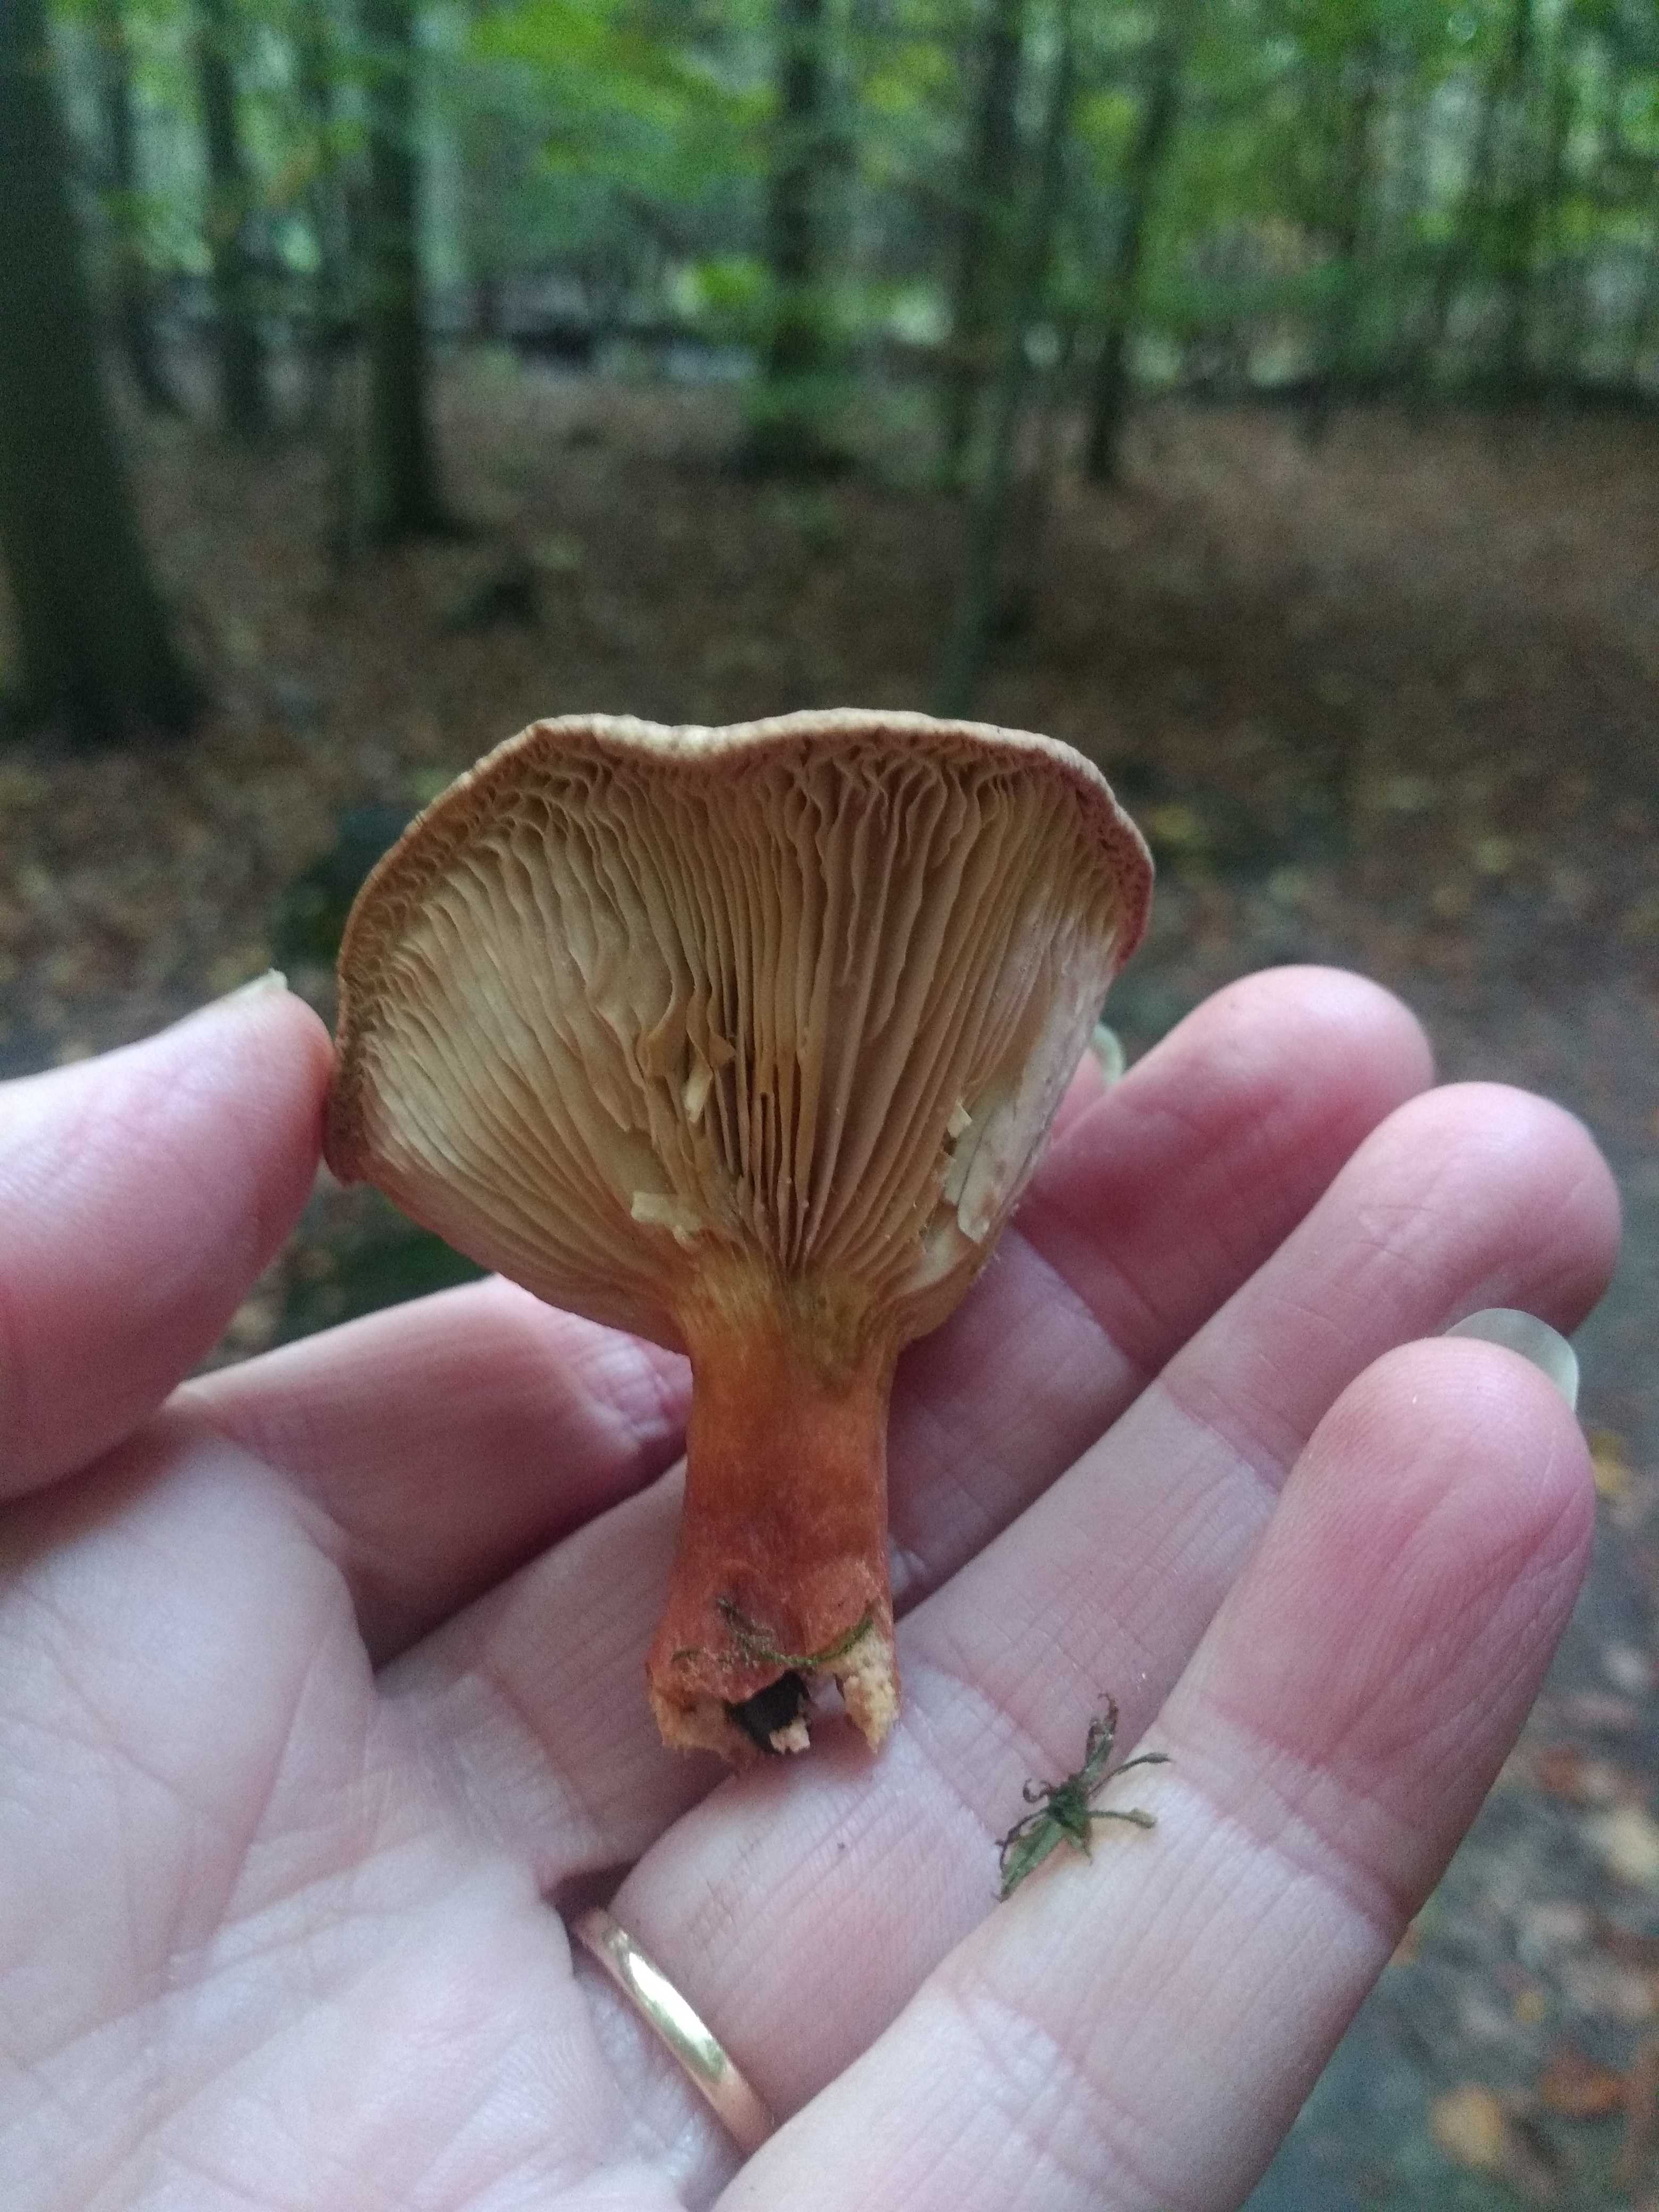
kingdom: Fungi
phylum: Basidiomycota
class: Agaricomycetes
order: Russulales
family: Russulaceae
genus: Lactarius
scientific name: Lactarius
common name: mælkehat
